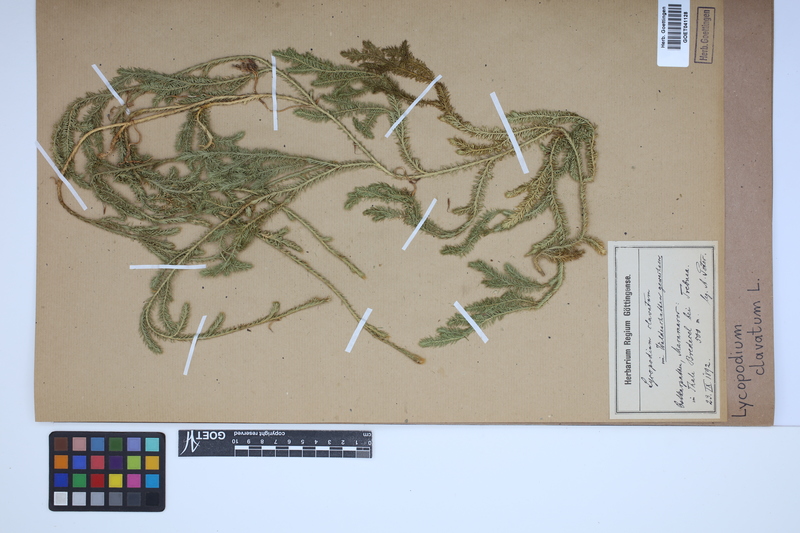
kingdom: Plantae
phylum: Tracheophyta
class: Lycopodiopsida
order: Lycopodiales
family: Lycopodiaceae
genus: Lycopodium
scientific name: Lycopodium clavatum
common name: Stag's-horn clubmoss
